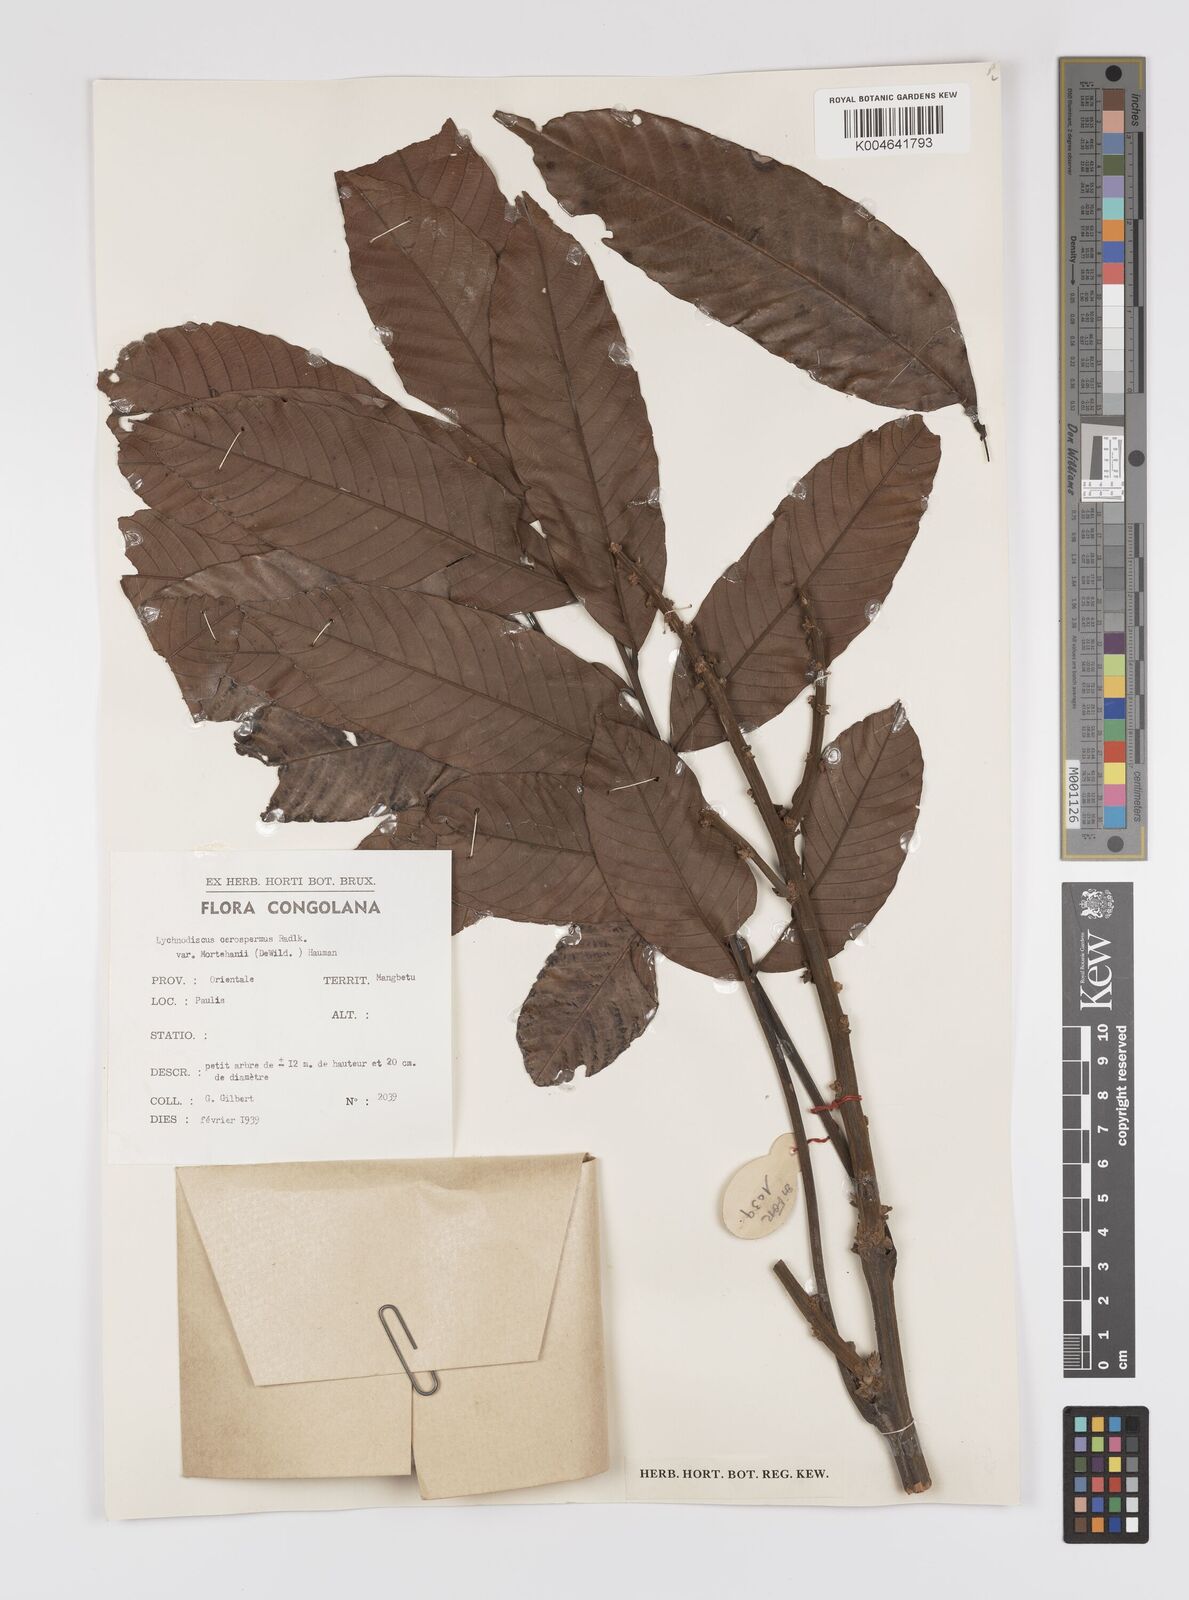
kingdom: Plantae
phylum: Tracheophyta
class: Magnoliopsida
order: Sapindales
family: Sapindaceae
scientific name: Sapindaceae
